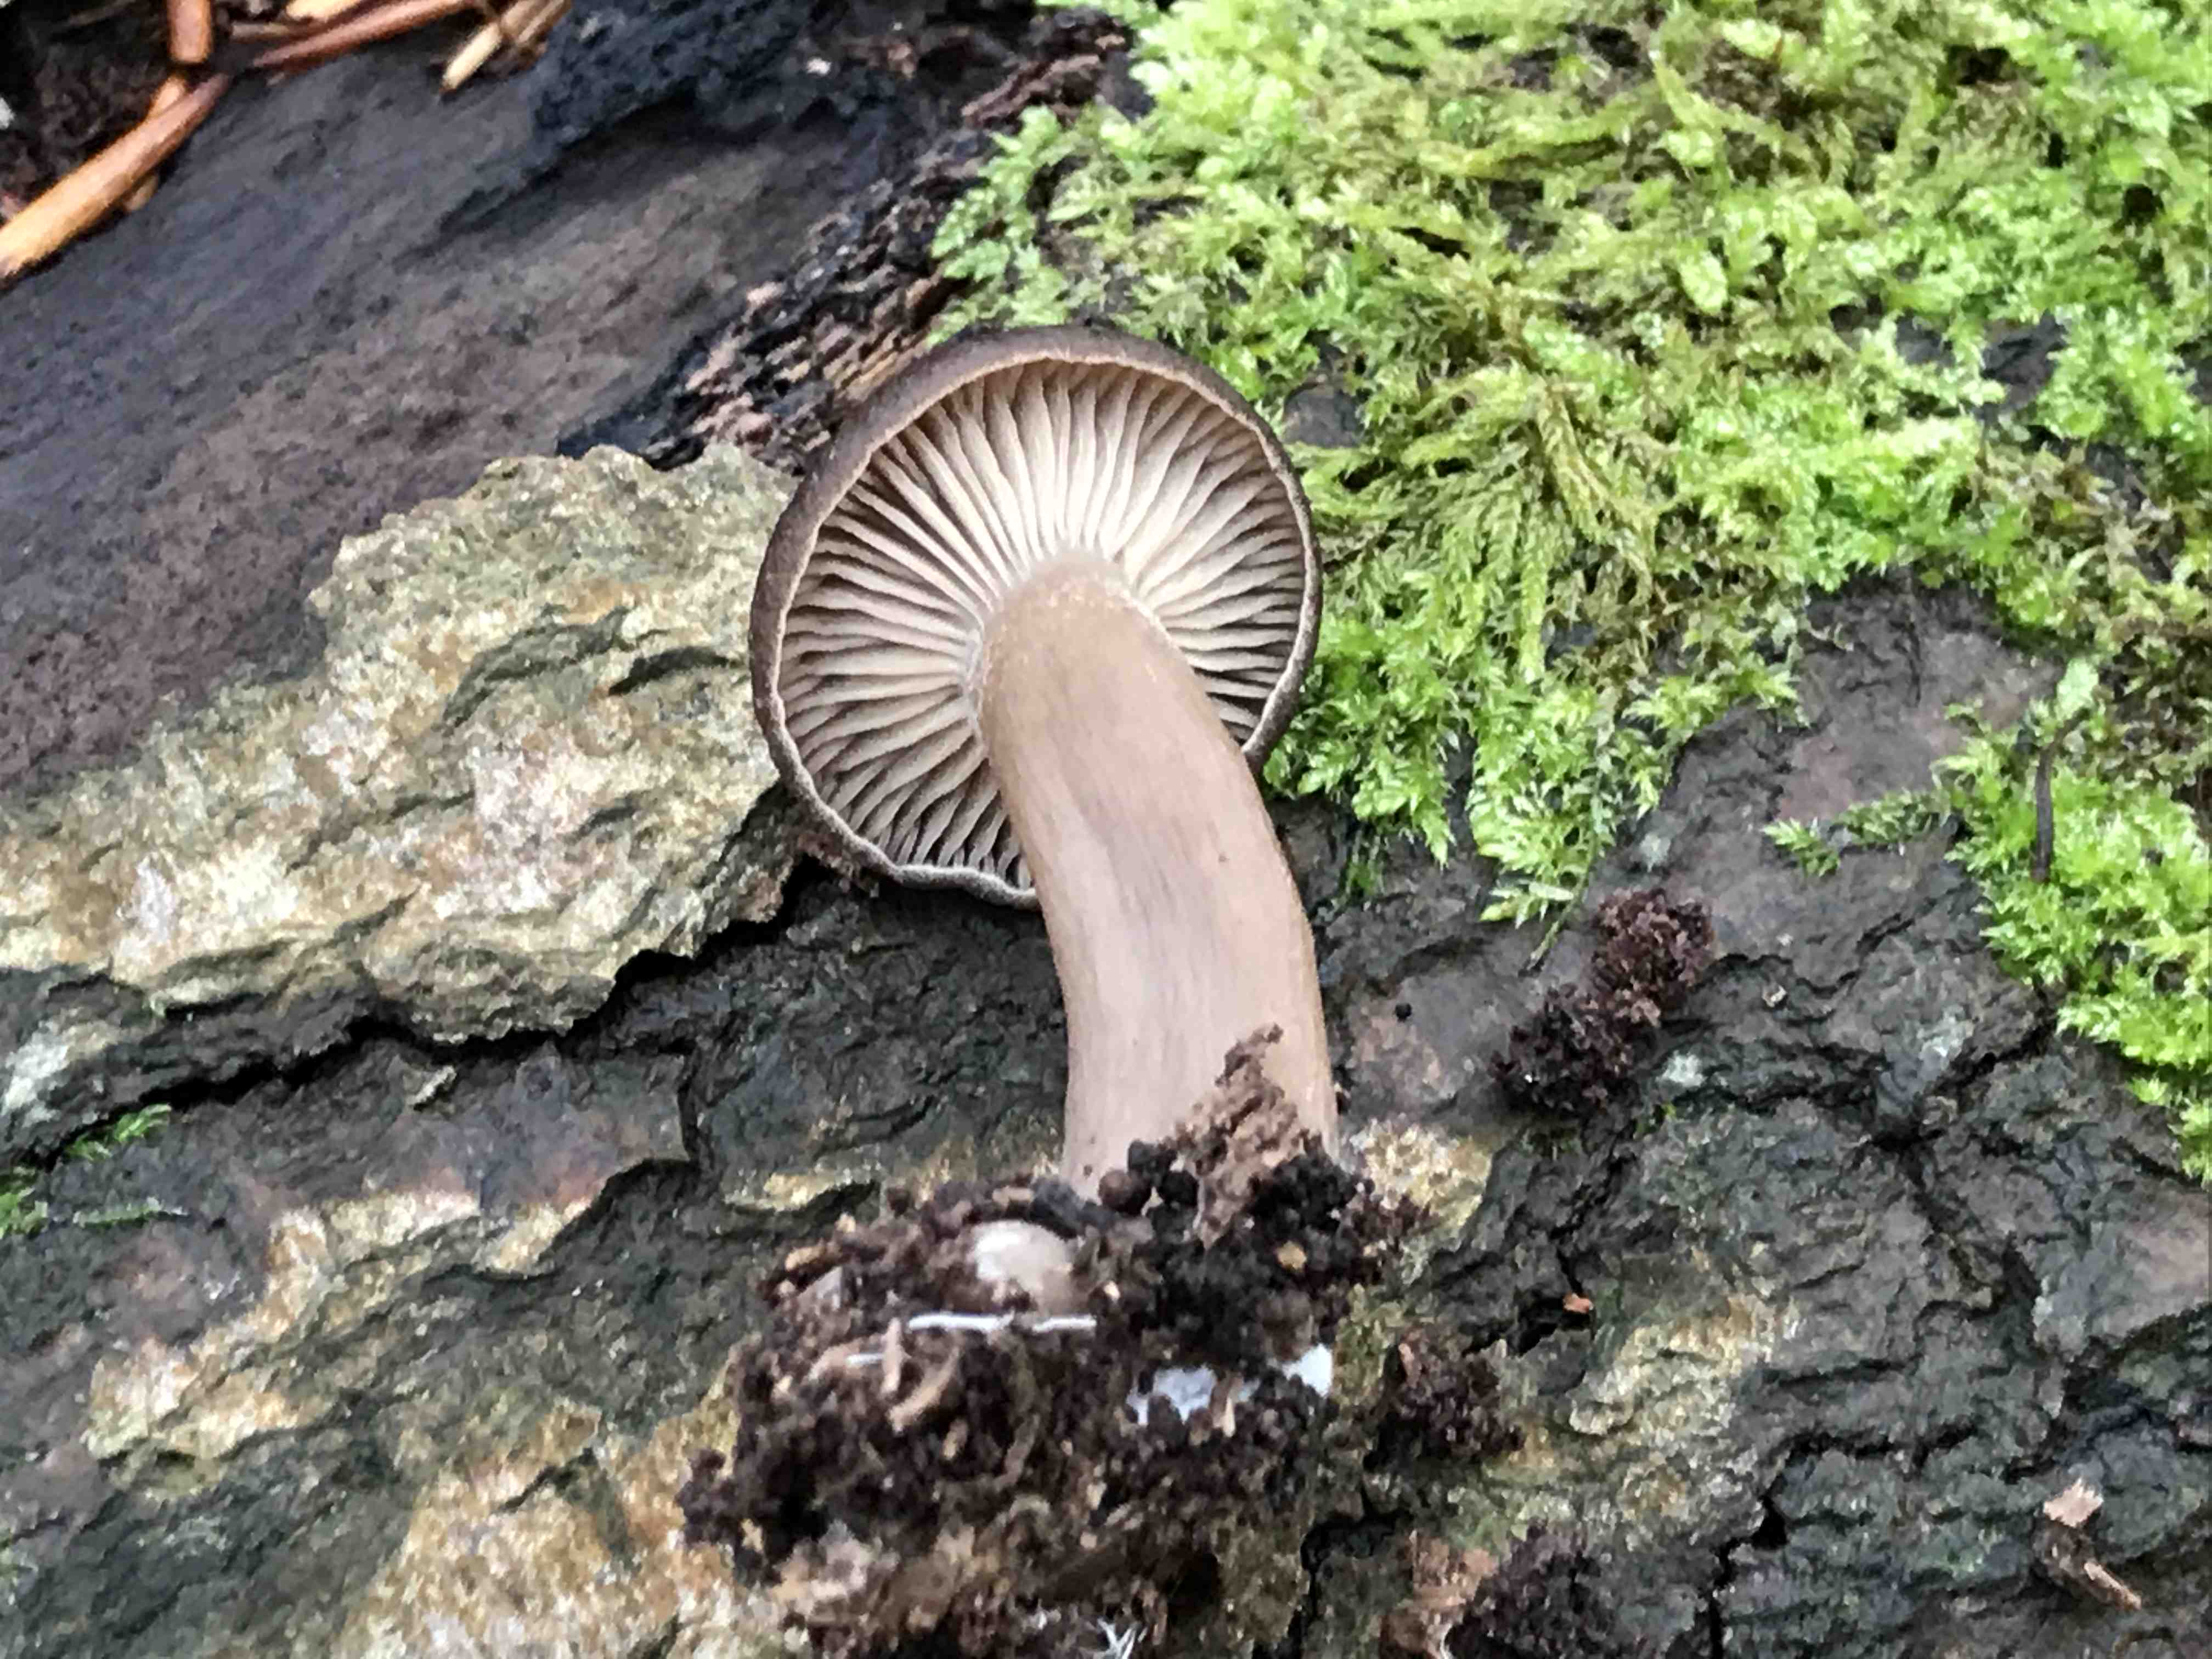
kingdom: Fungi
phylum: Basidiomycota
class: Agaricomycetes
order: Agaricales
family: Pseudoclitocybaceae
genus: Pseudoclitocybe
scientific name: Pseudoclitocybe cyathiformis
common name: almindelig bægertragthat
